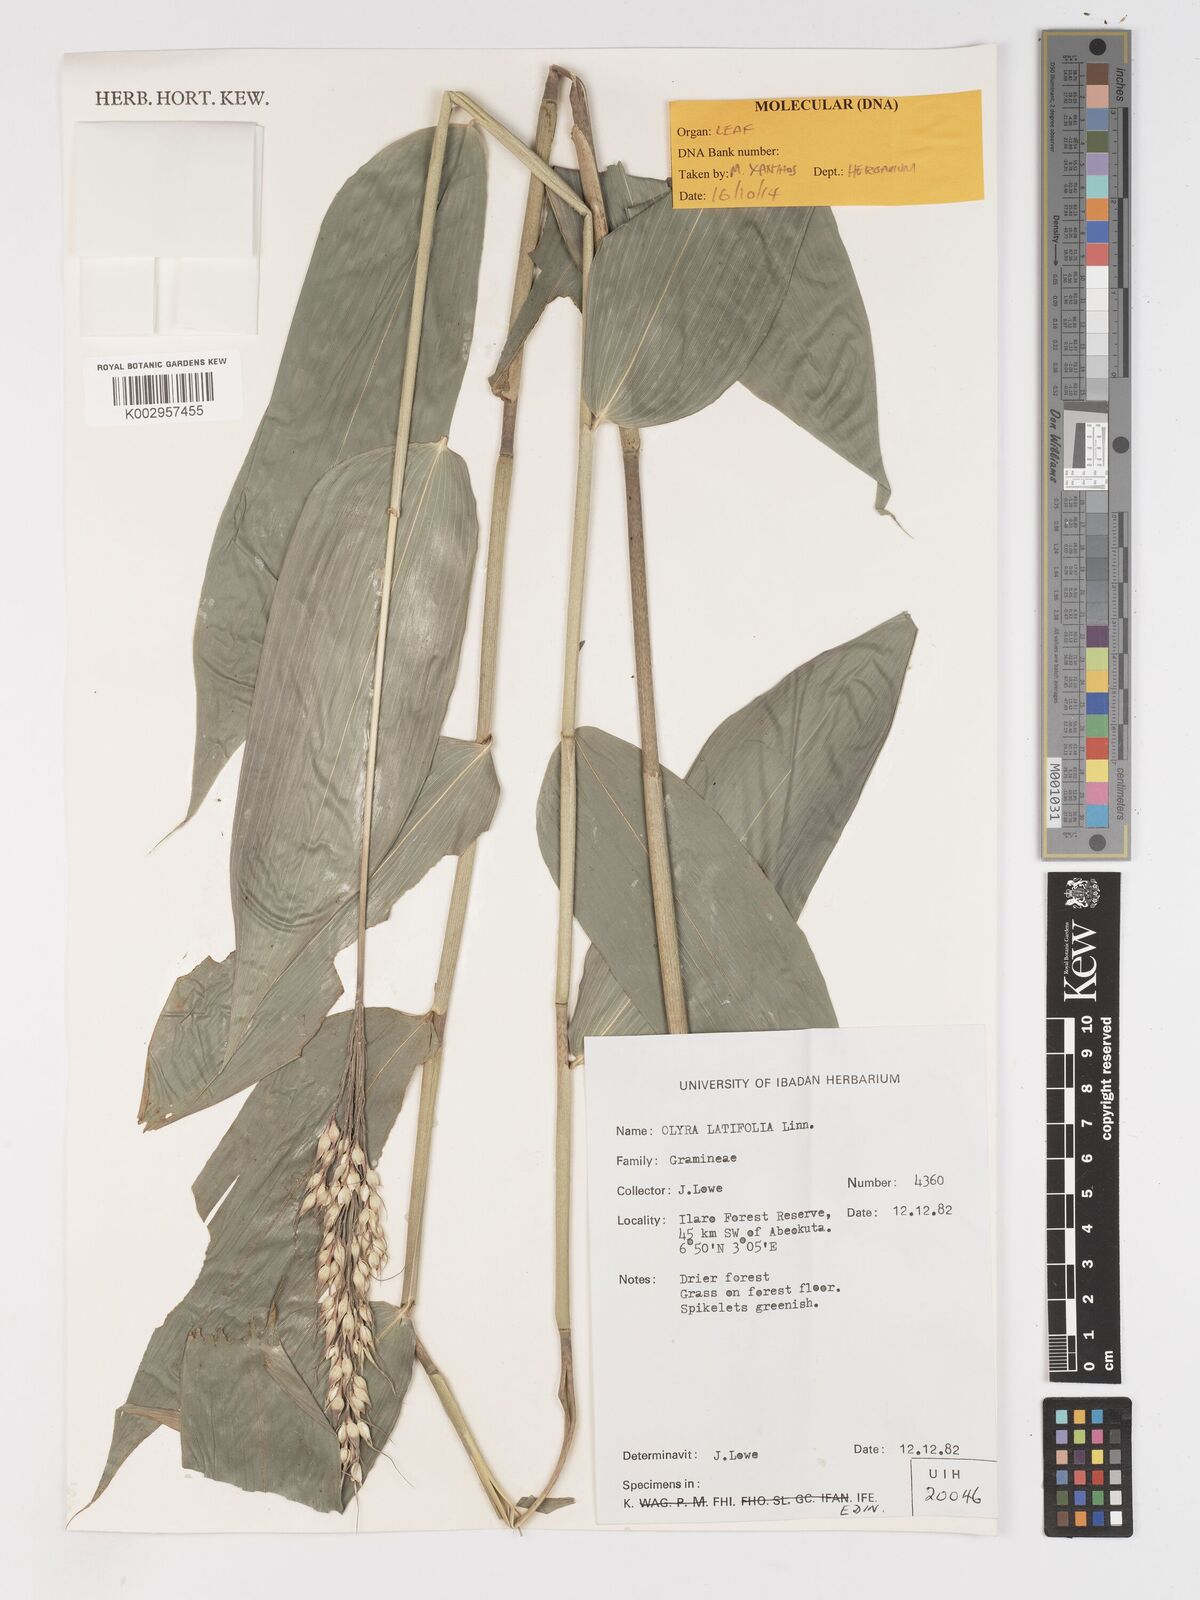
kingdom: Plantae
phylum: Tracheophyta
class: Liliopsida
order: Poales
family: Poaceae
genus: Olyra
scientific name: Olyra latifolia
